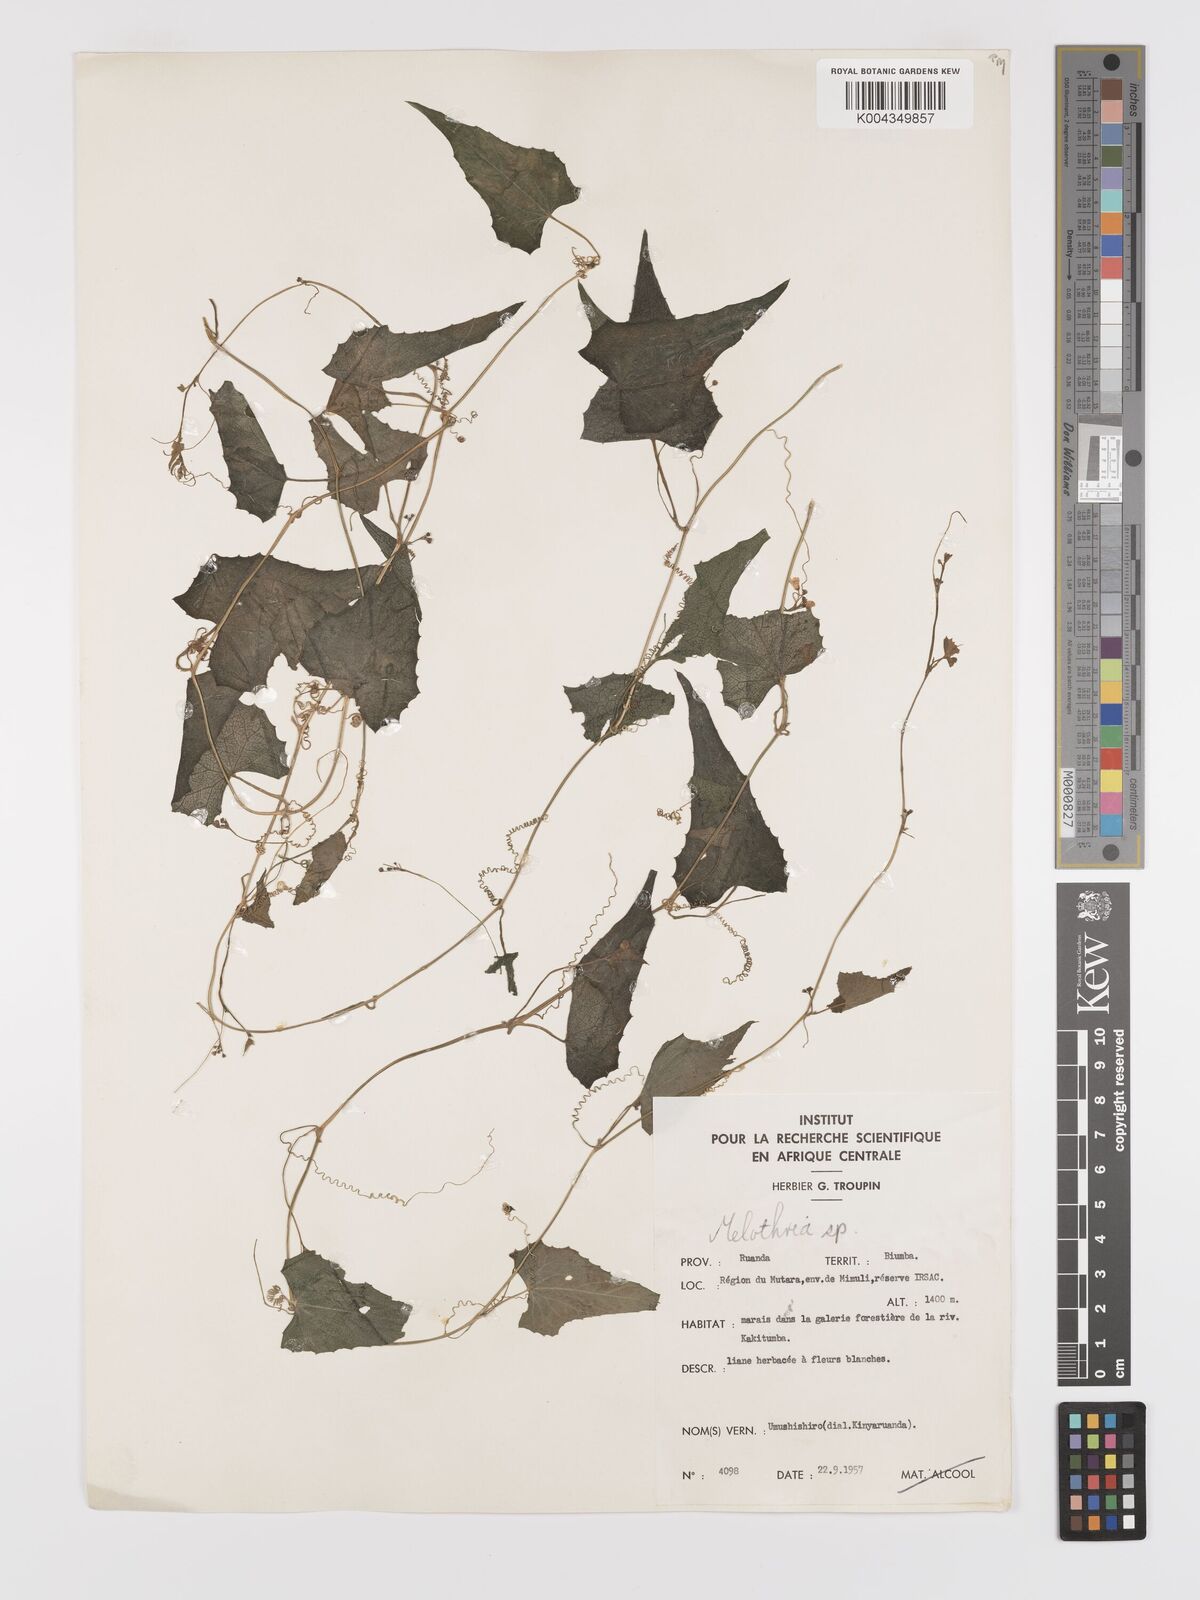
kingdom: Plantae
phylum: Tracheophyta
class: Magnoliopsida
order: Cucurbitales
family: Cucurbitaceae
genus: Zehneria
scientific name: Zehneria minutiflora
